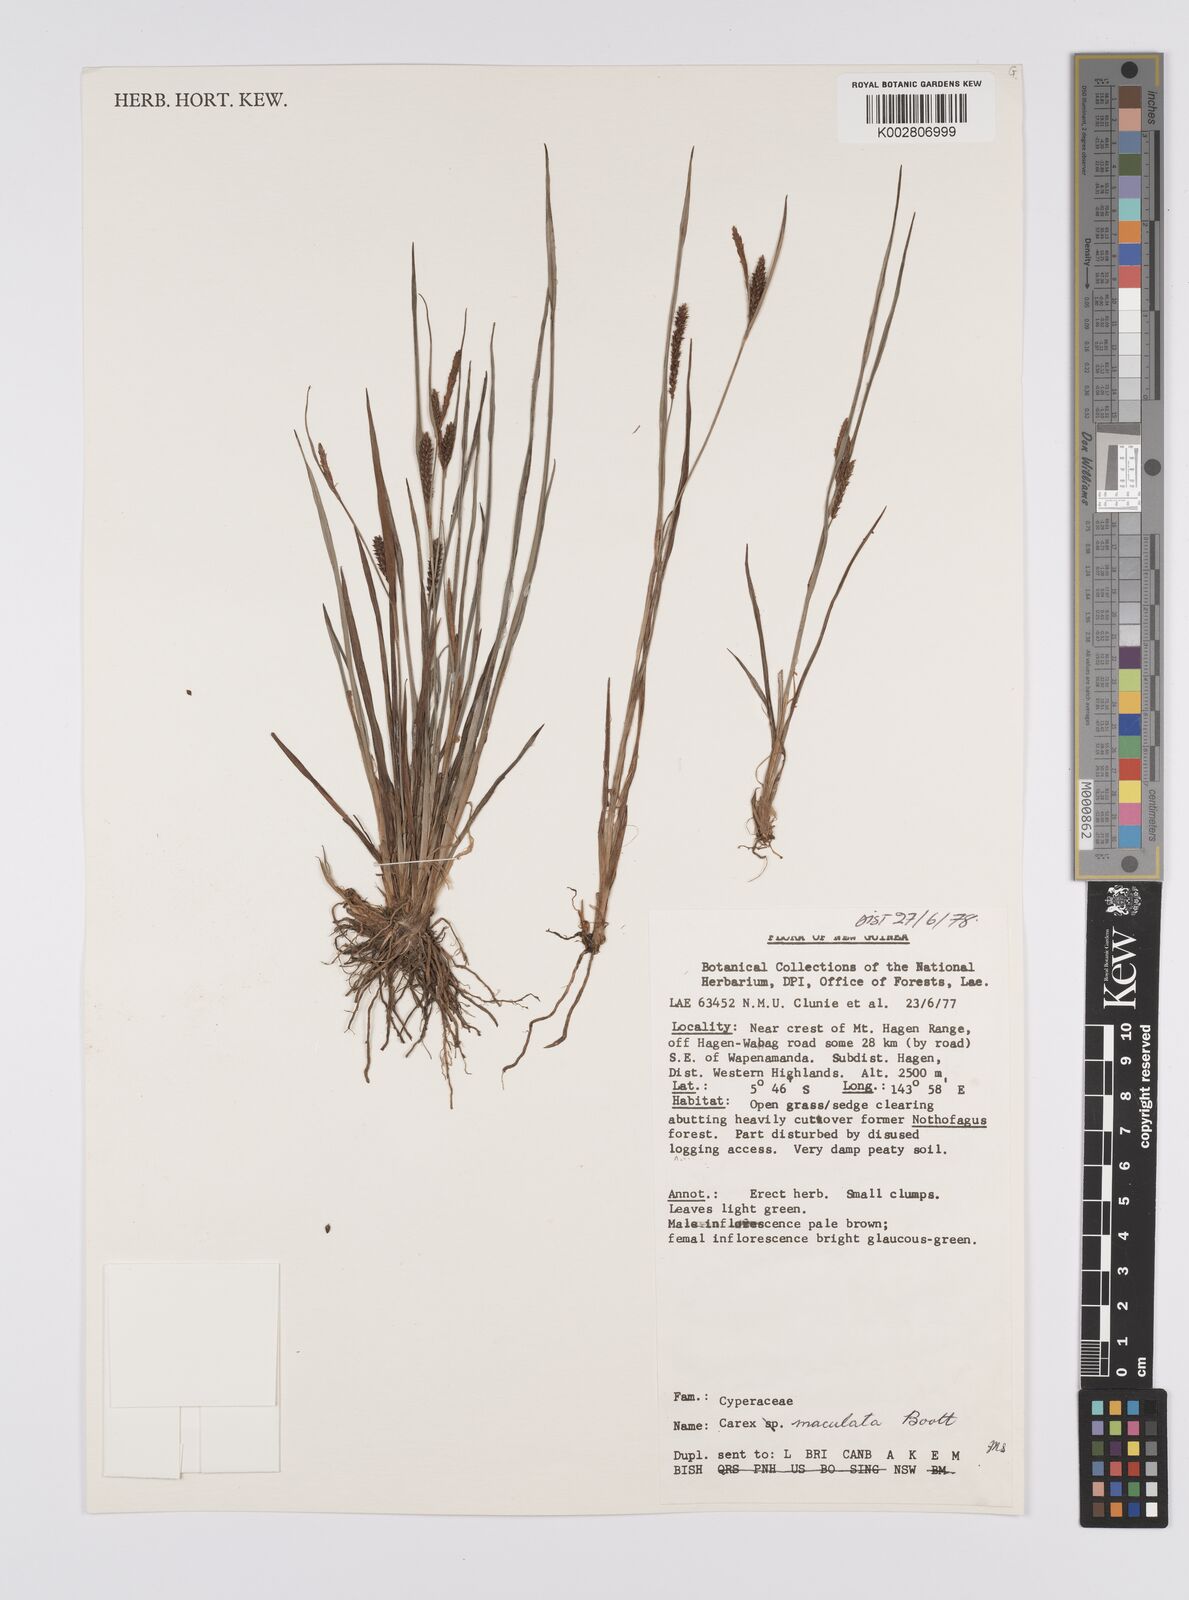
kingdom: Plantae
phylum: Tracheophyta
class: Liliopsida
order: Poales
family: Cyperaceae
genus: Carex
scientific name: Carex maculata
